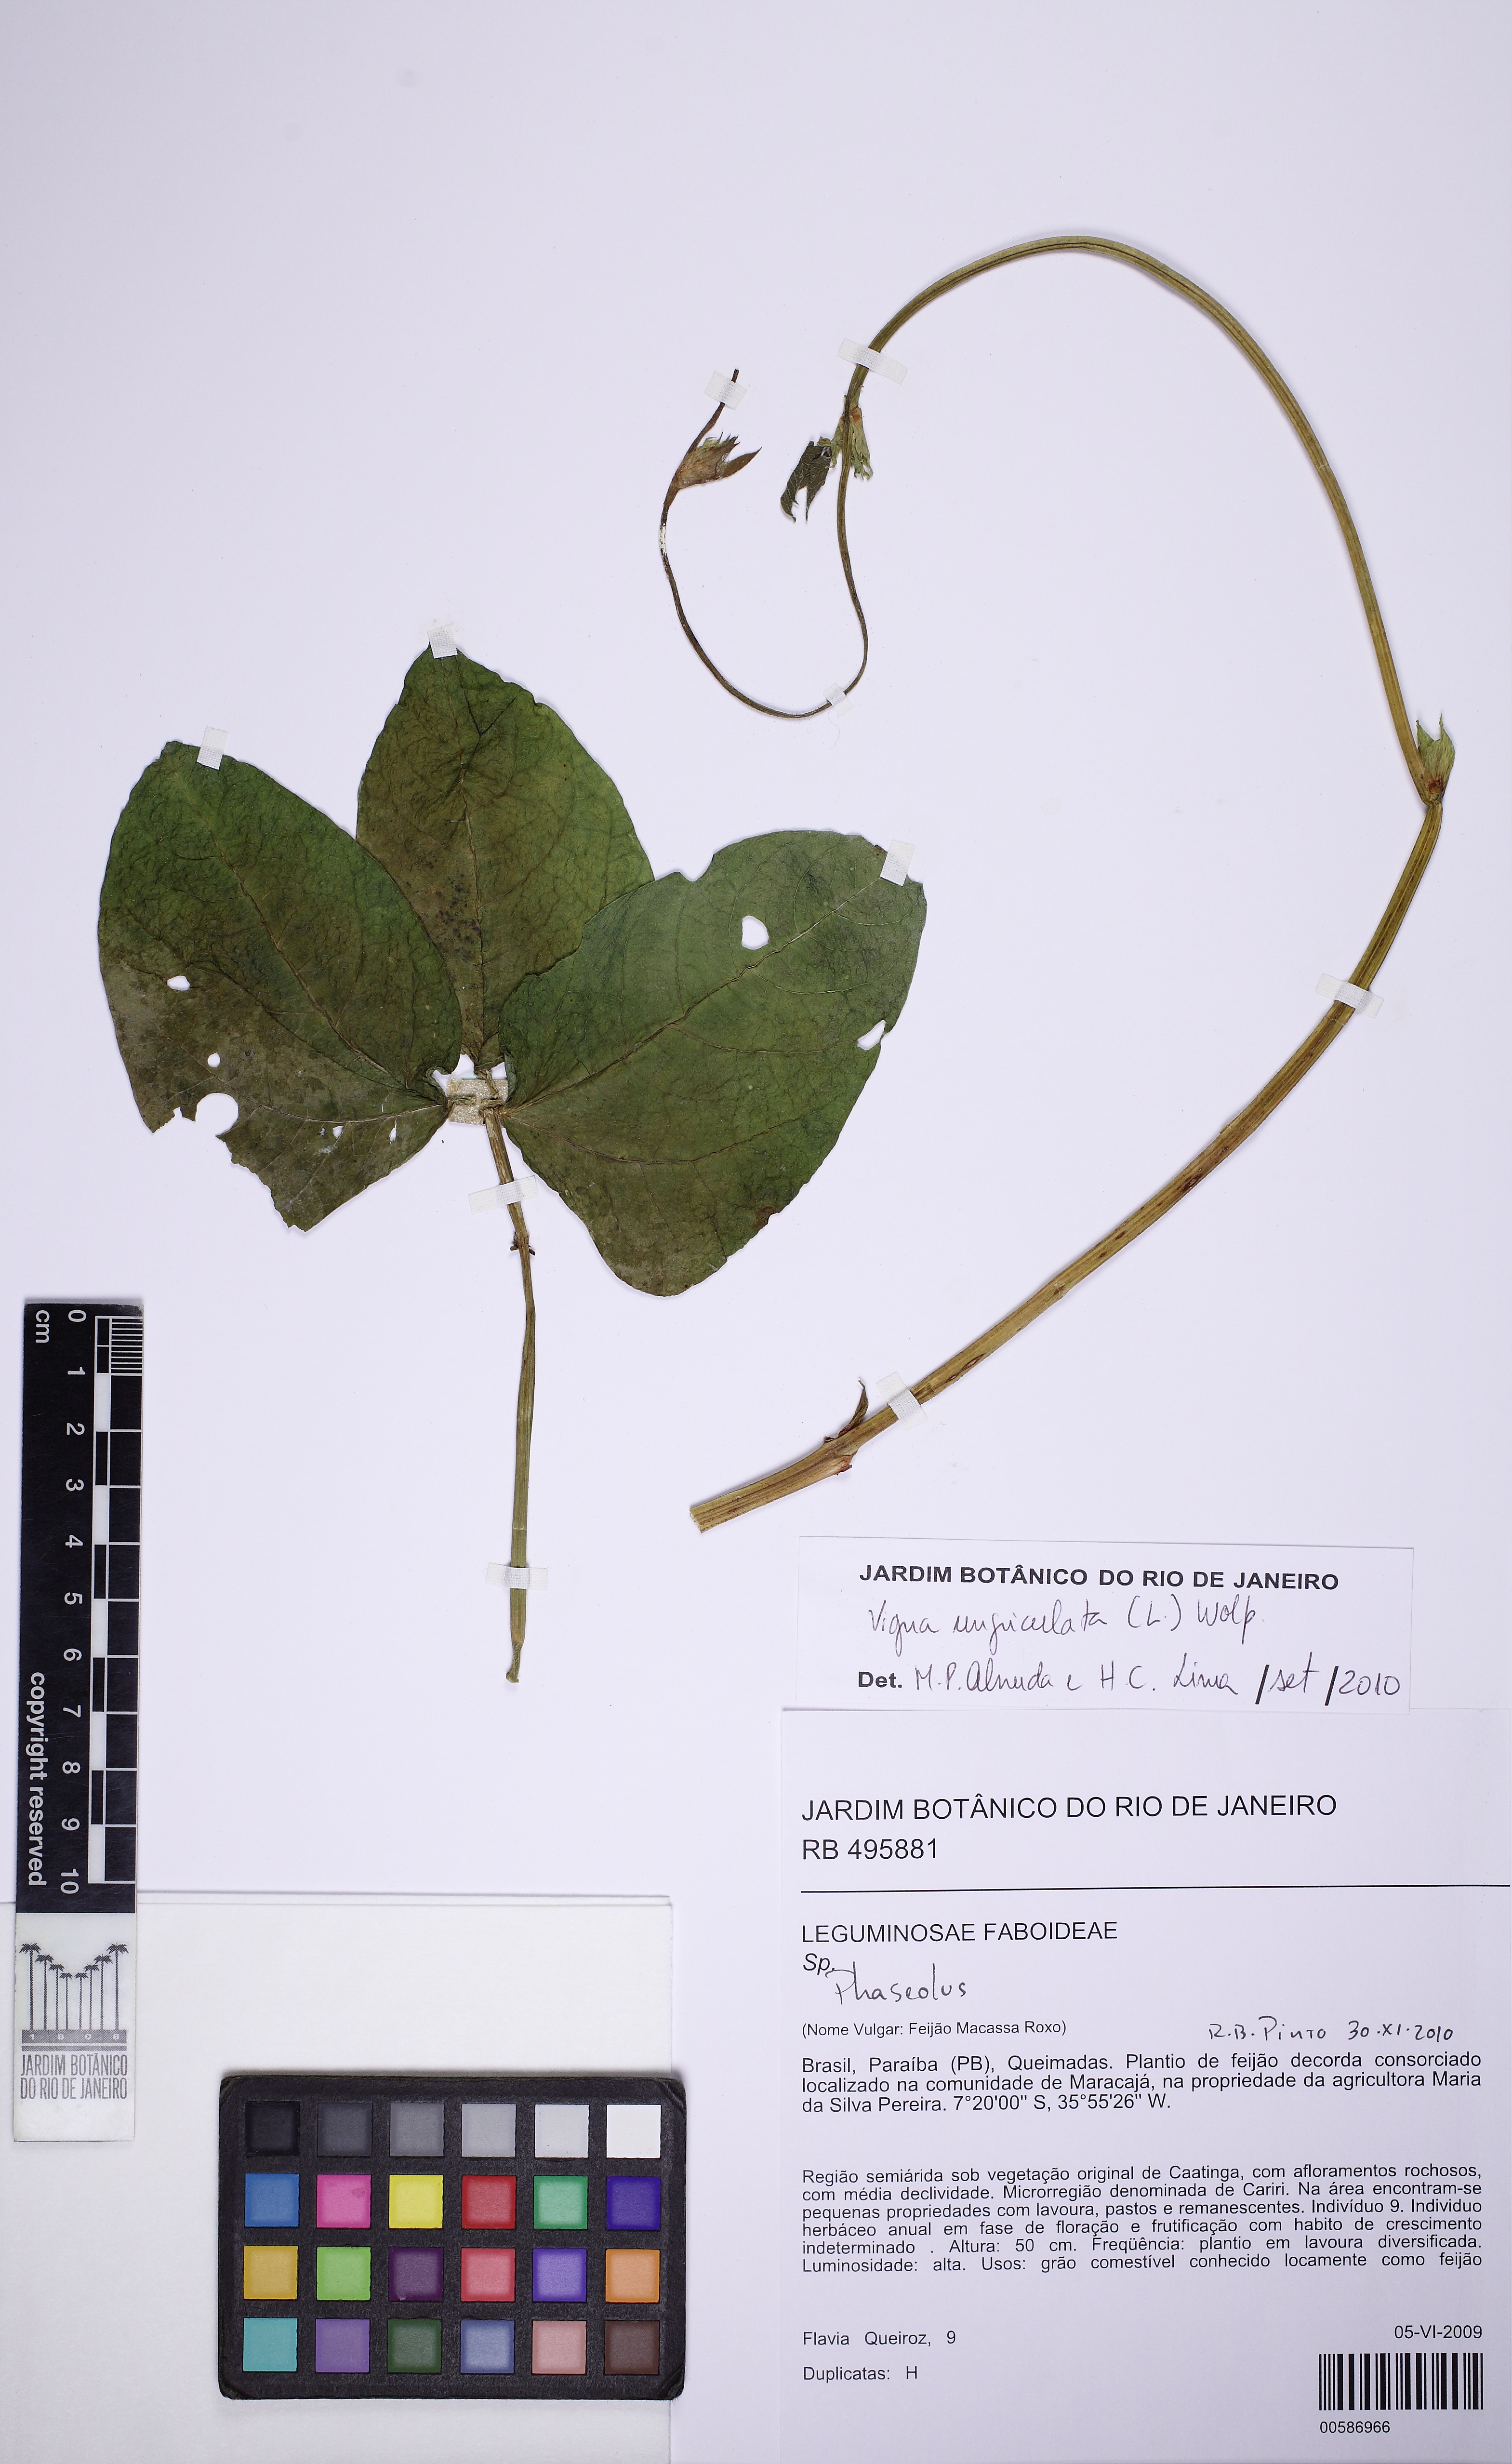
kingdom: Plantae
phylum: Tracheophyta
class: Magnoliopsida
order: Fabales
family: Fabaceae
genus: Vigna
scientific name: Vigna unguiculata
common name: Cowpea
